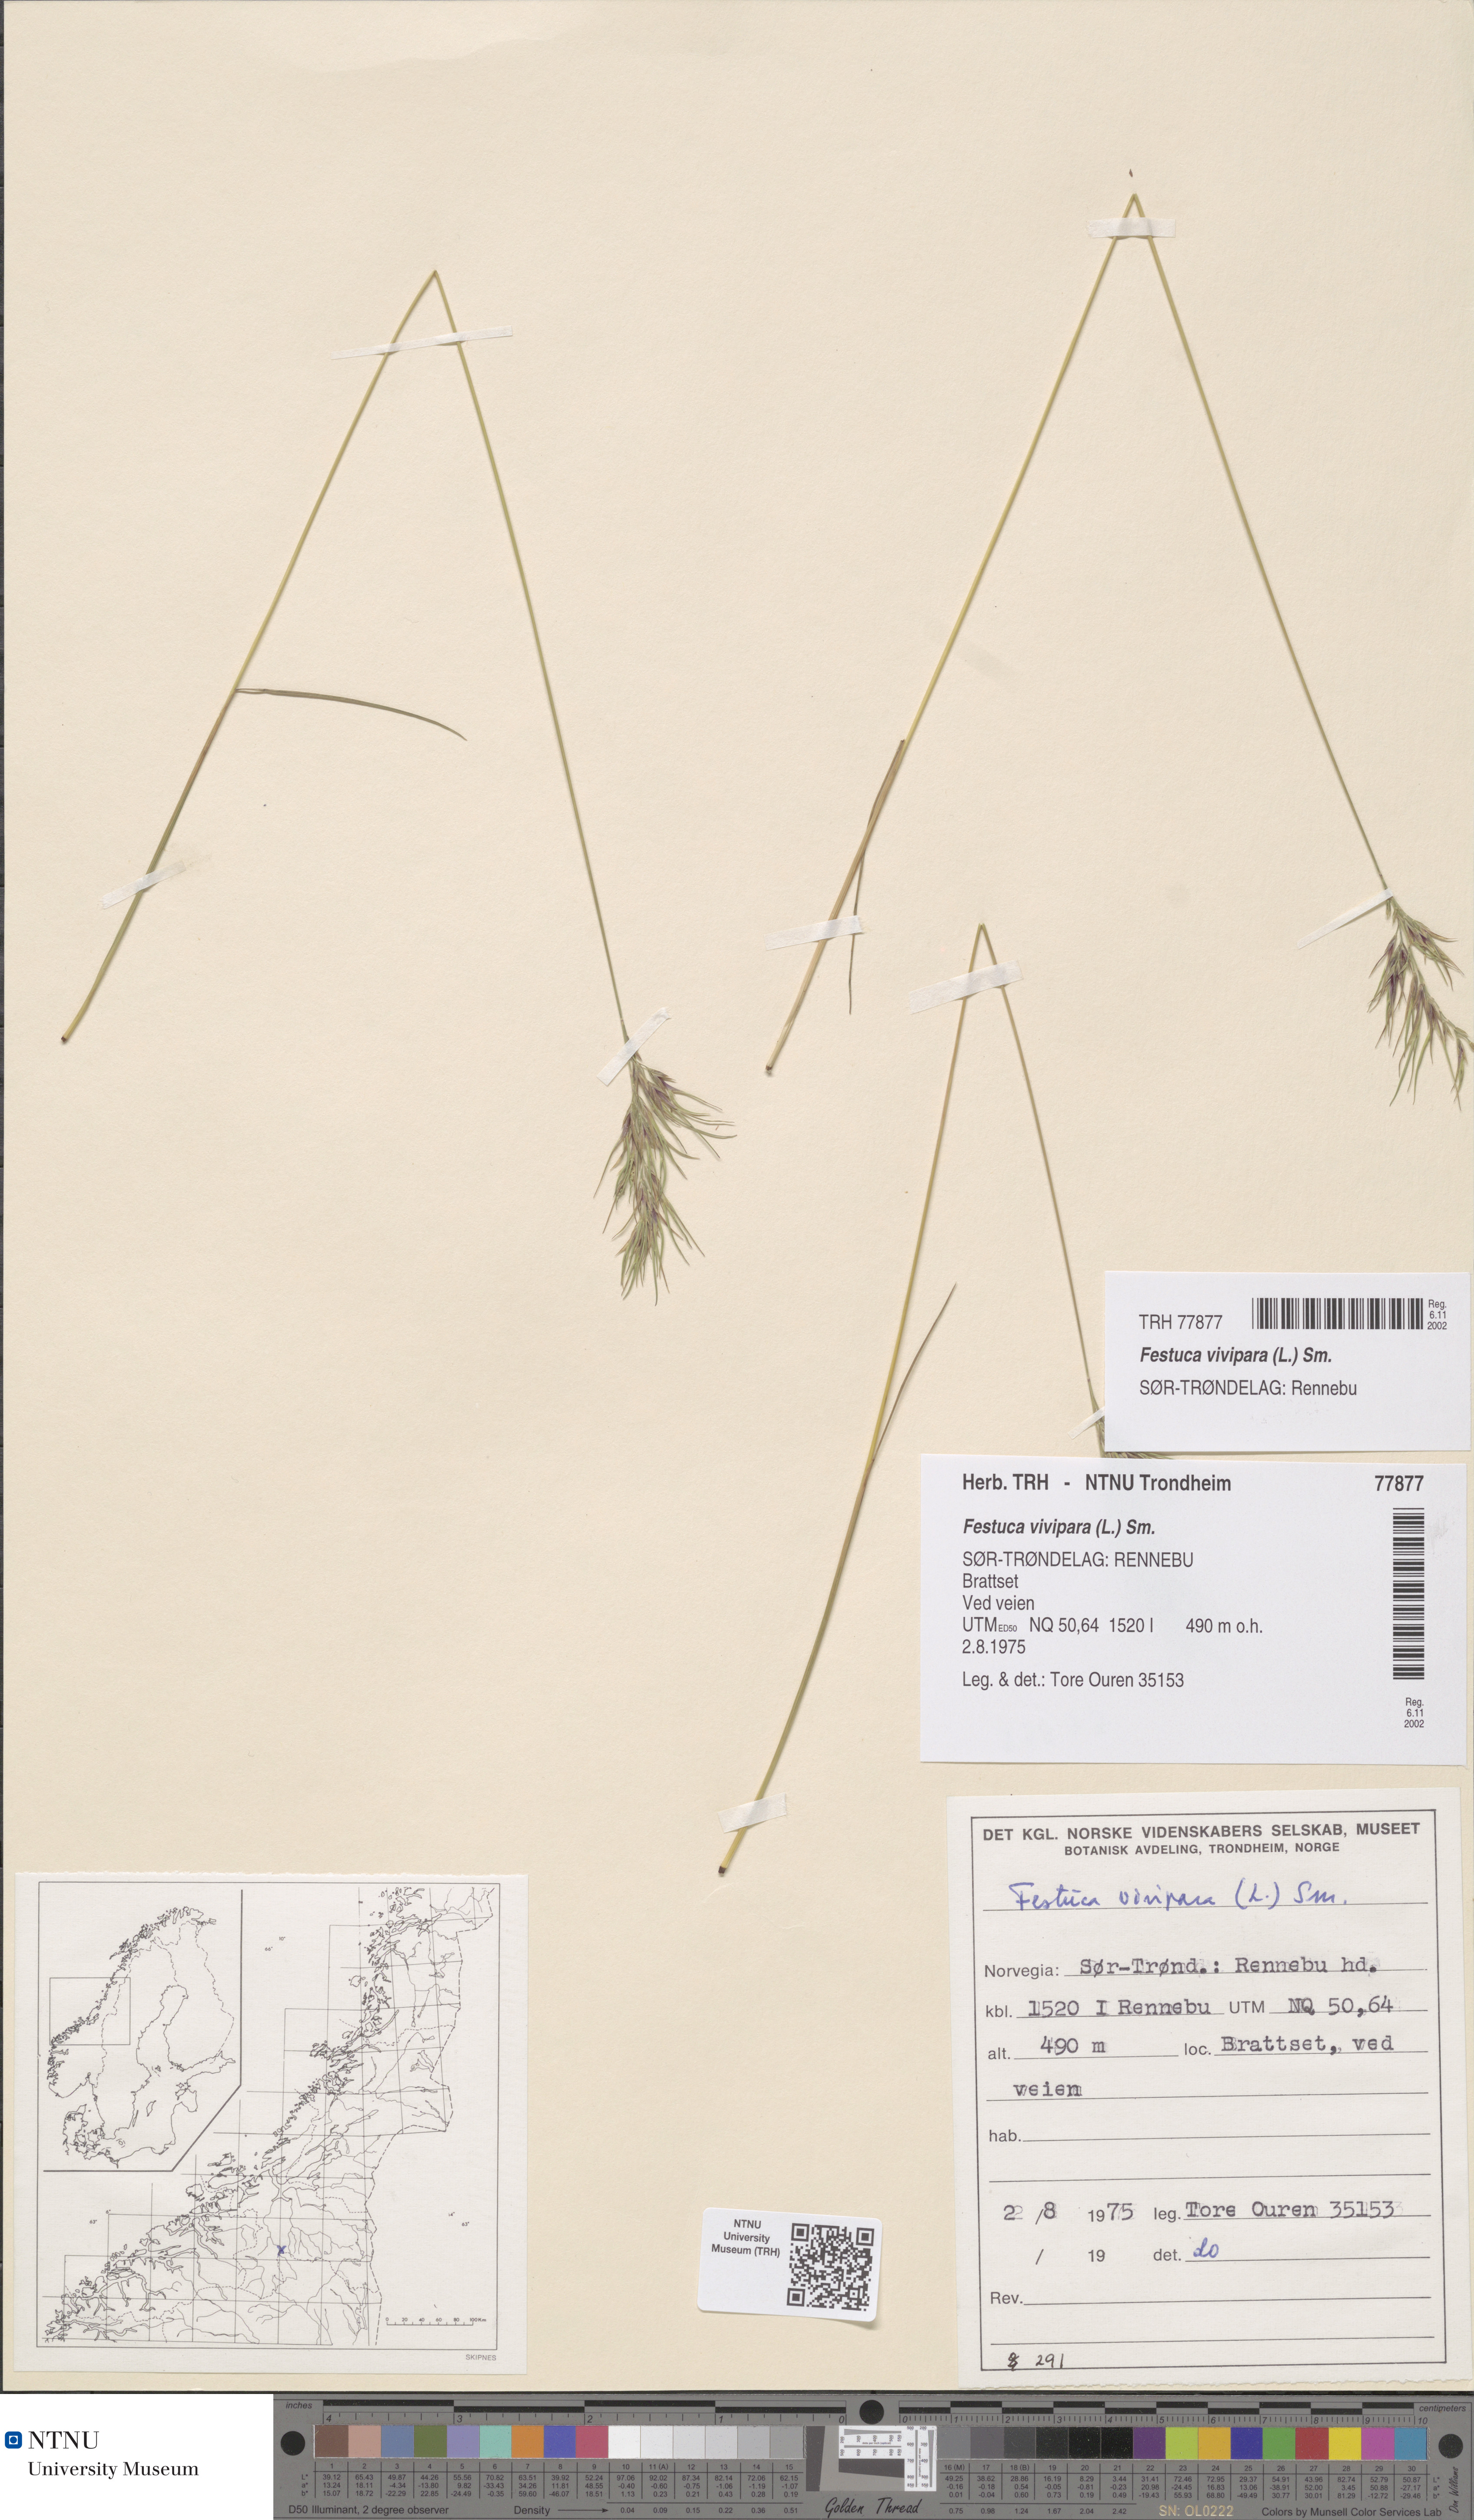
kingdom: Plantae
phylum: Tracheophyta
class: Liliopsida
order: Poales
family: Poaceae
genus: Festuca
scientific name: Festuca vivipara
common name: Viviparous sheep's-fescue
